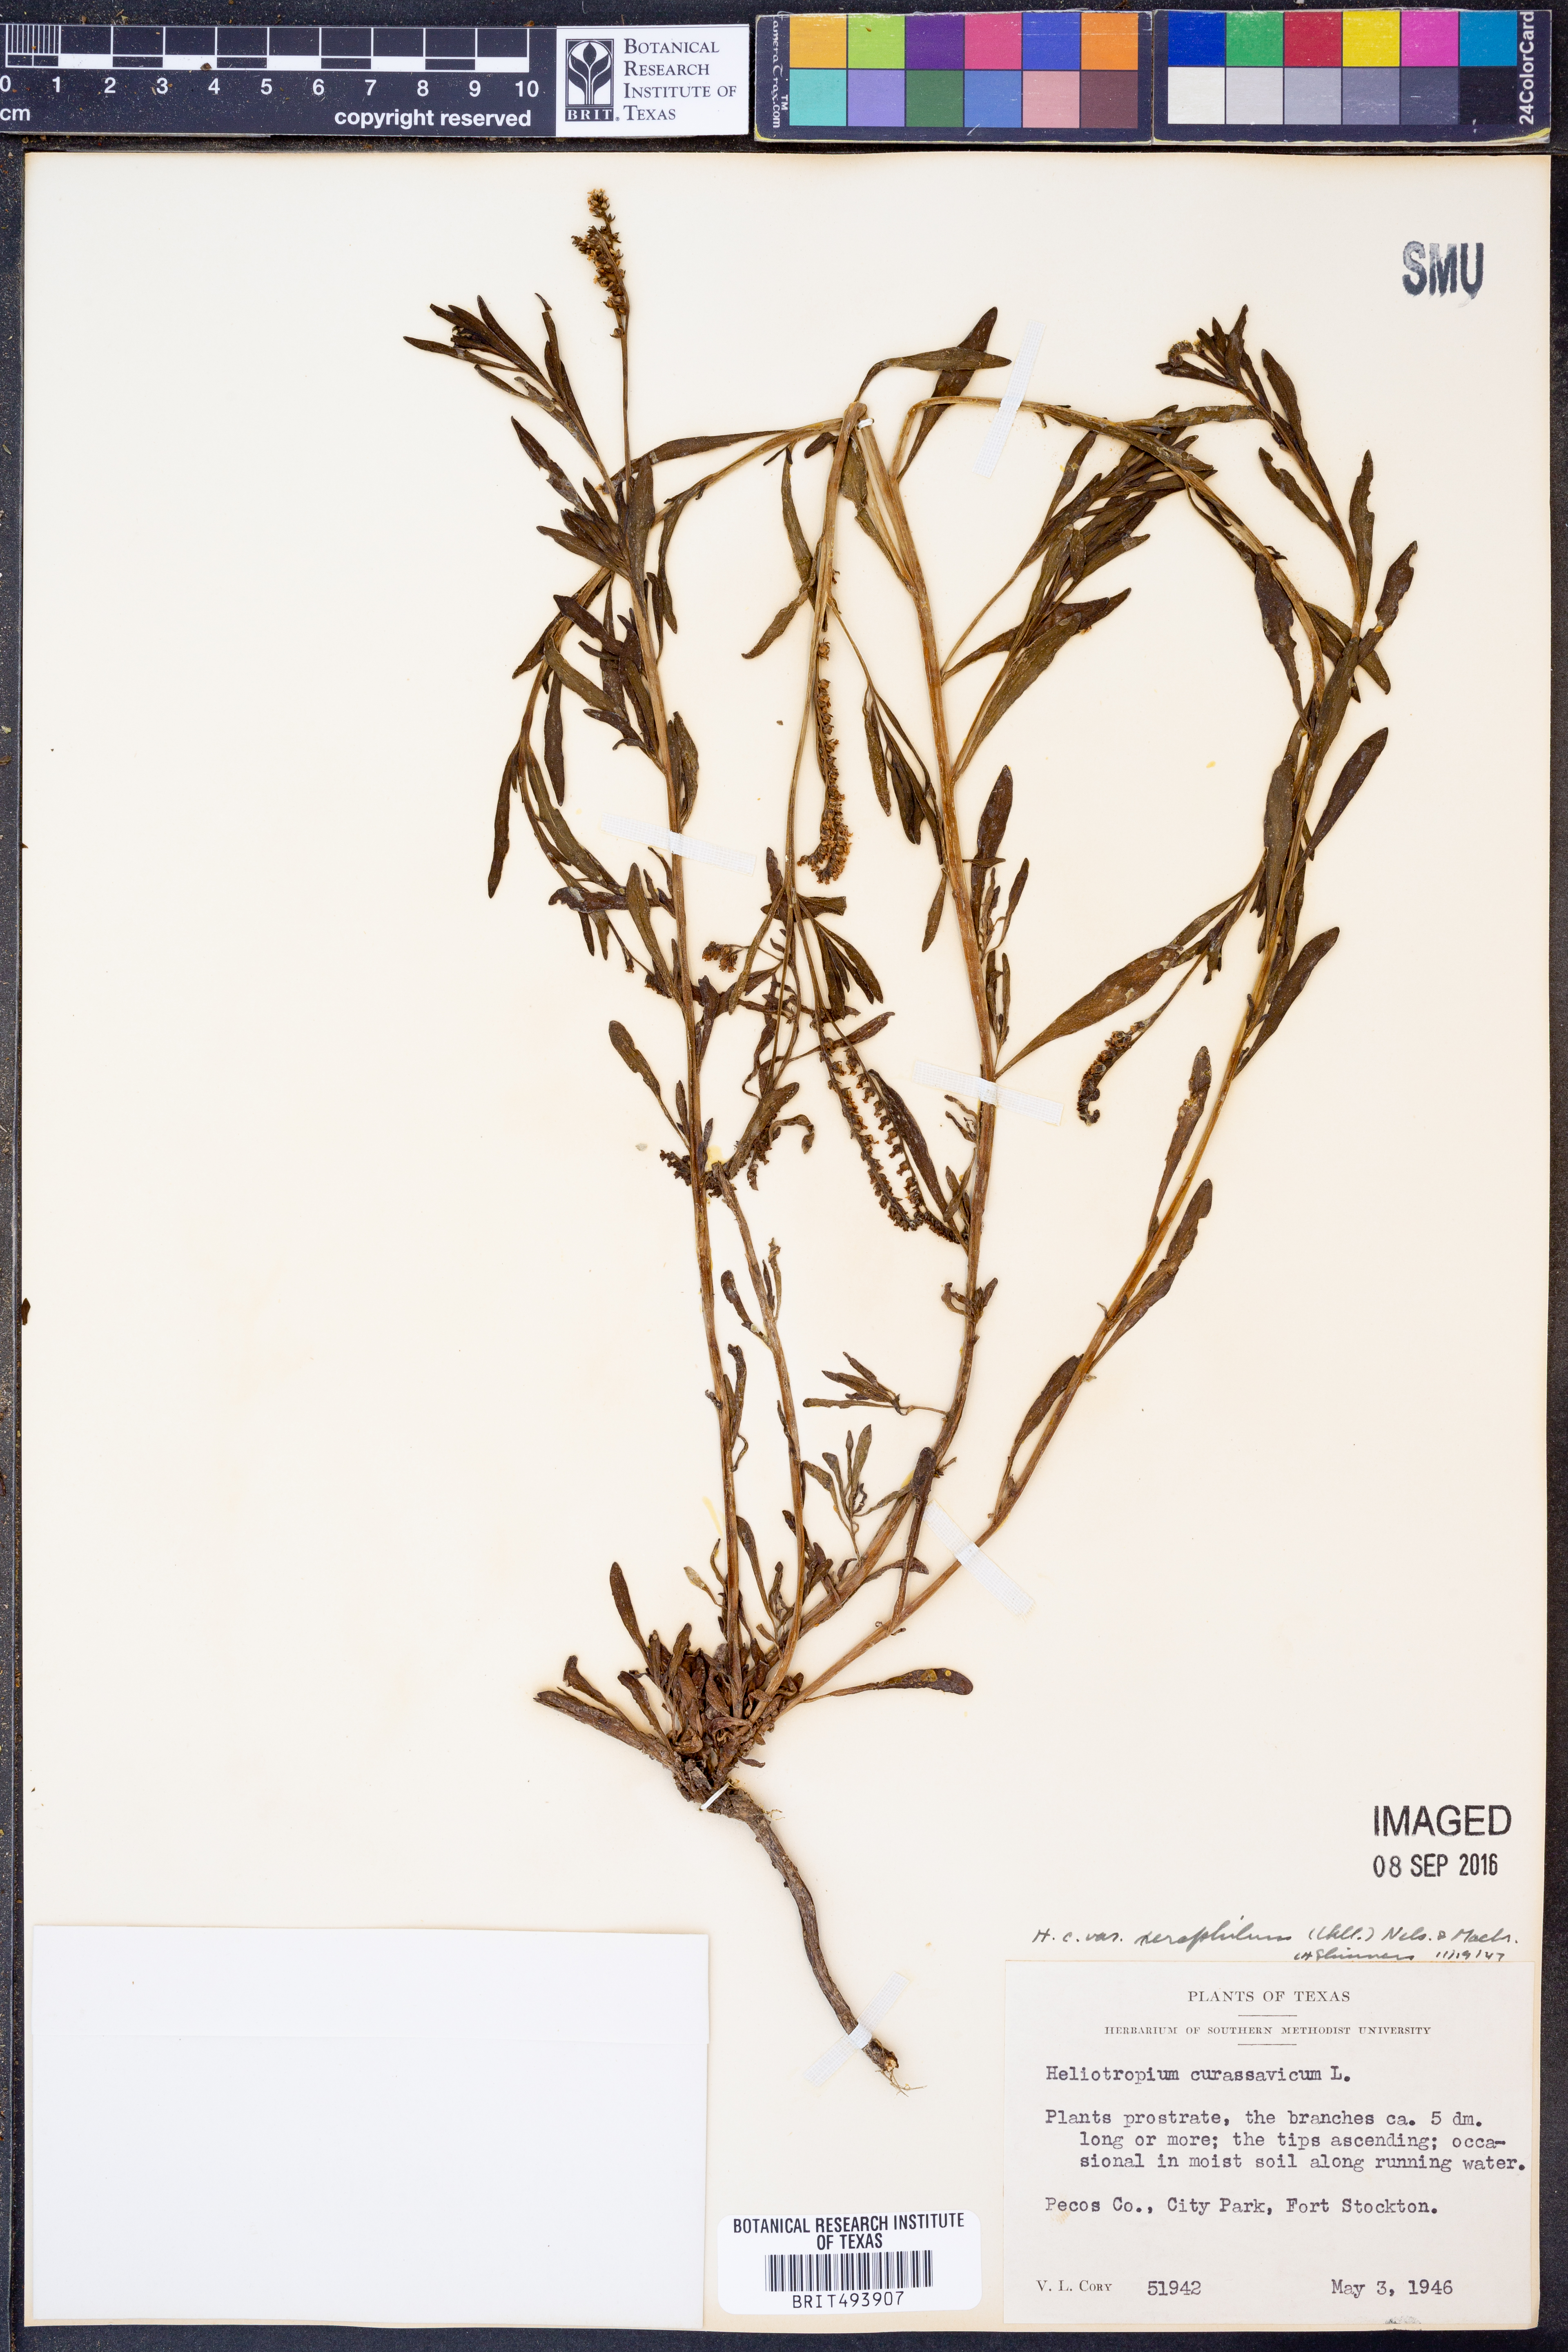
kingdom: Plantae
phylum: Tracheophyta
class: Magnoliopsida
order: Boraginales
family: Heliotropiaceae
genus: Heliotropium
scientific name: Heliotropium curassavicum
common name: Seaside heliotrope
